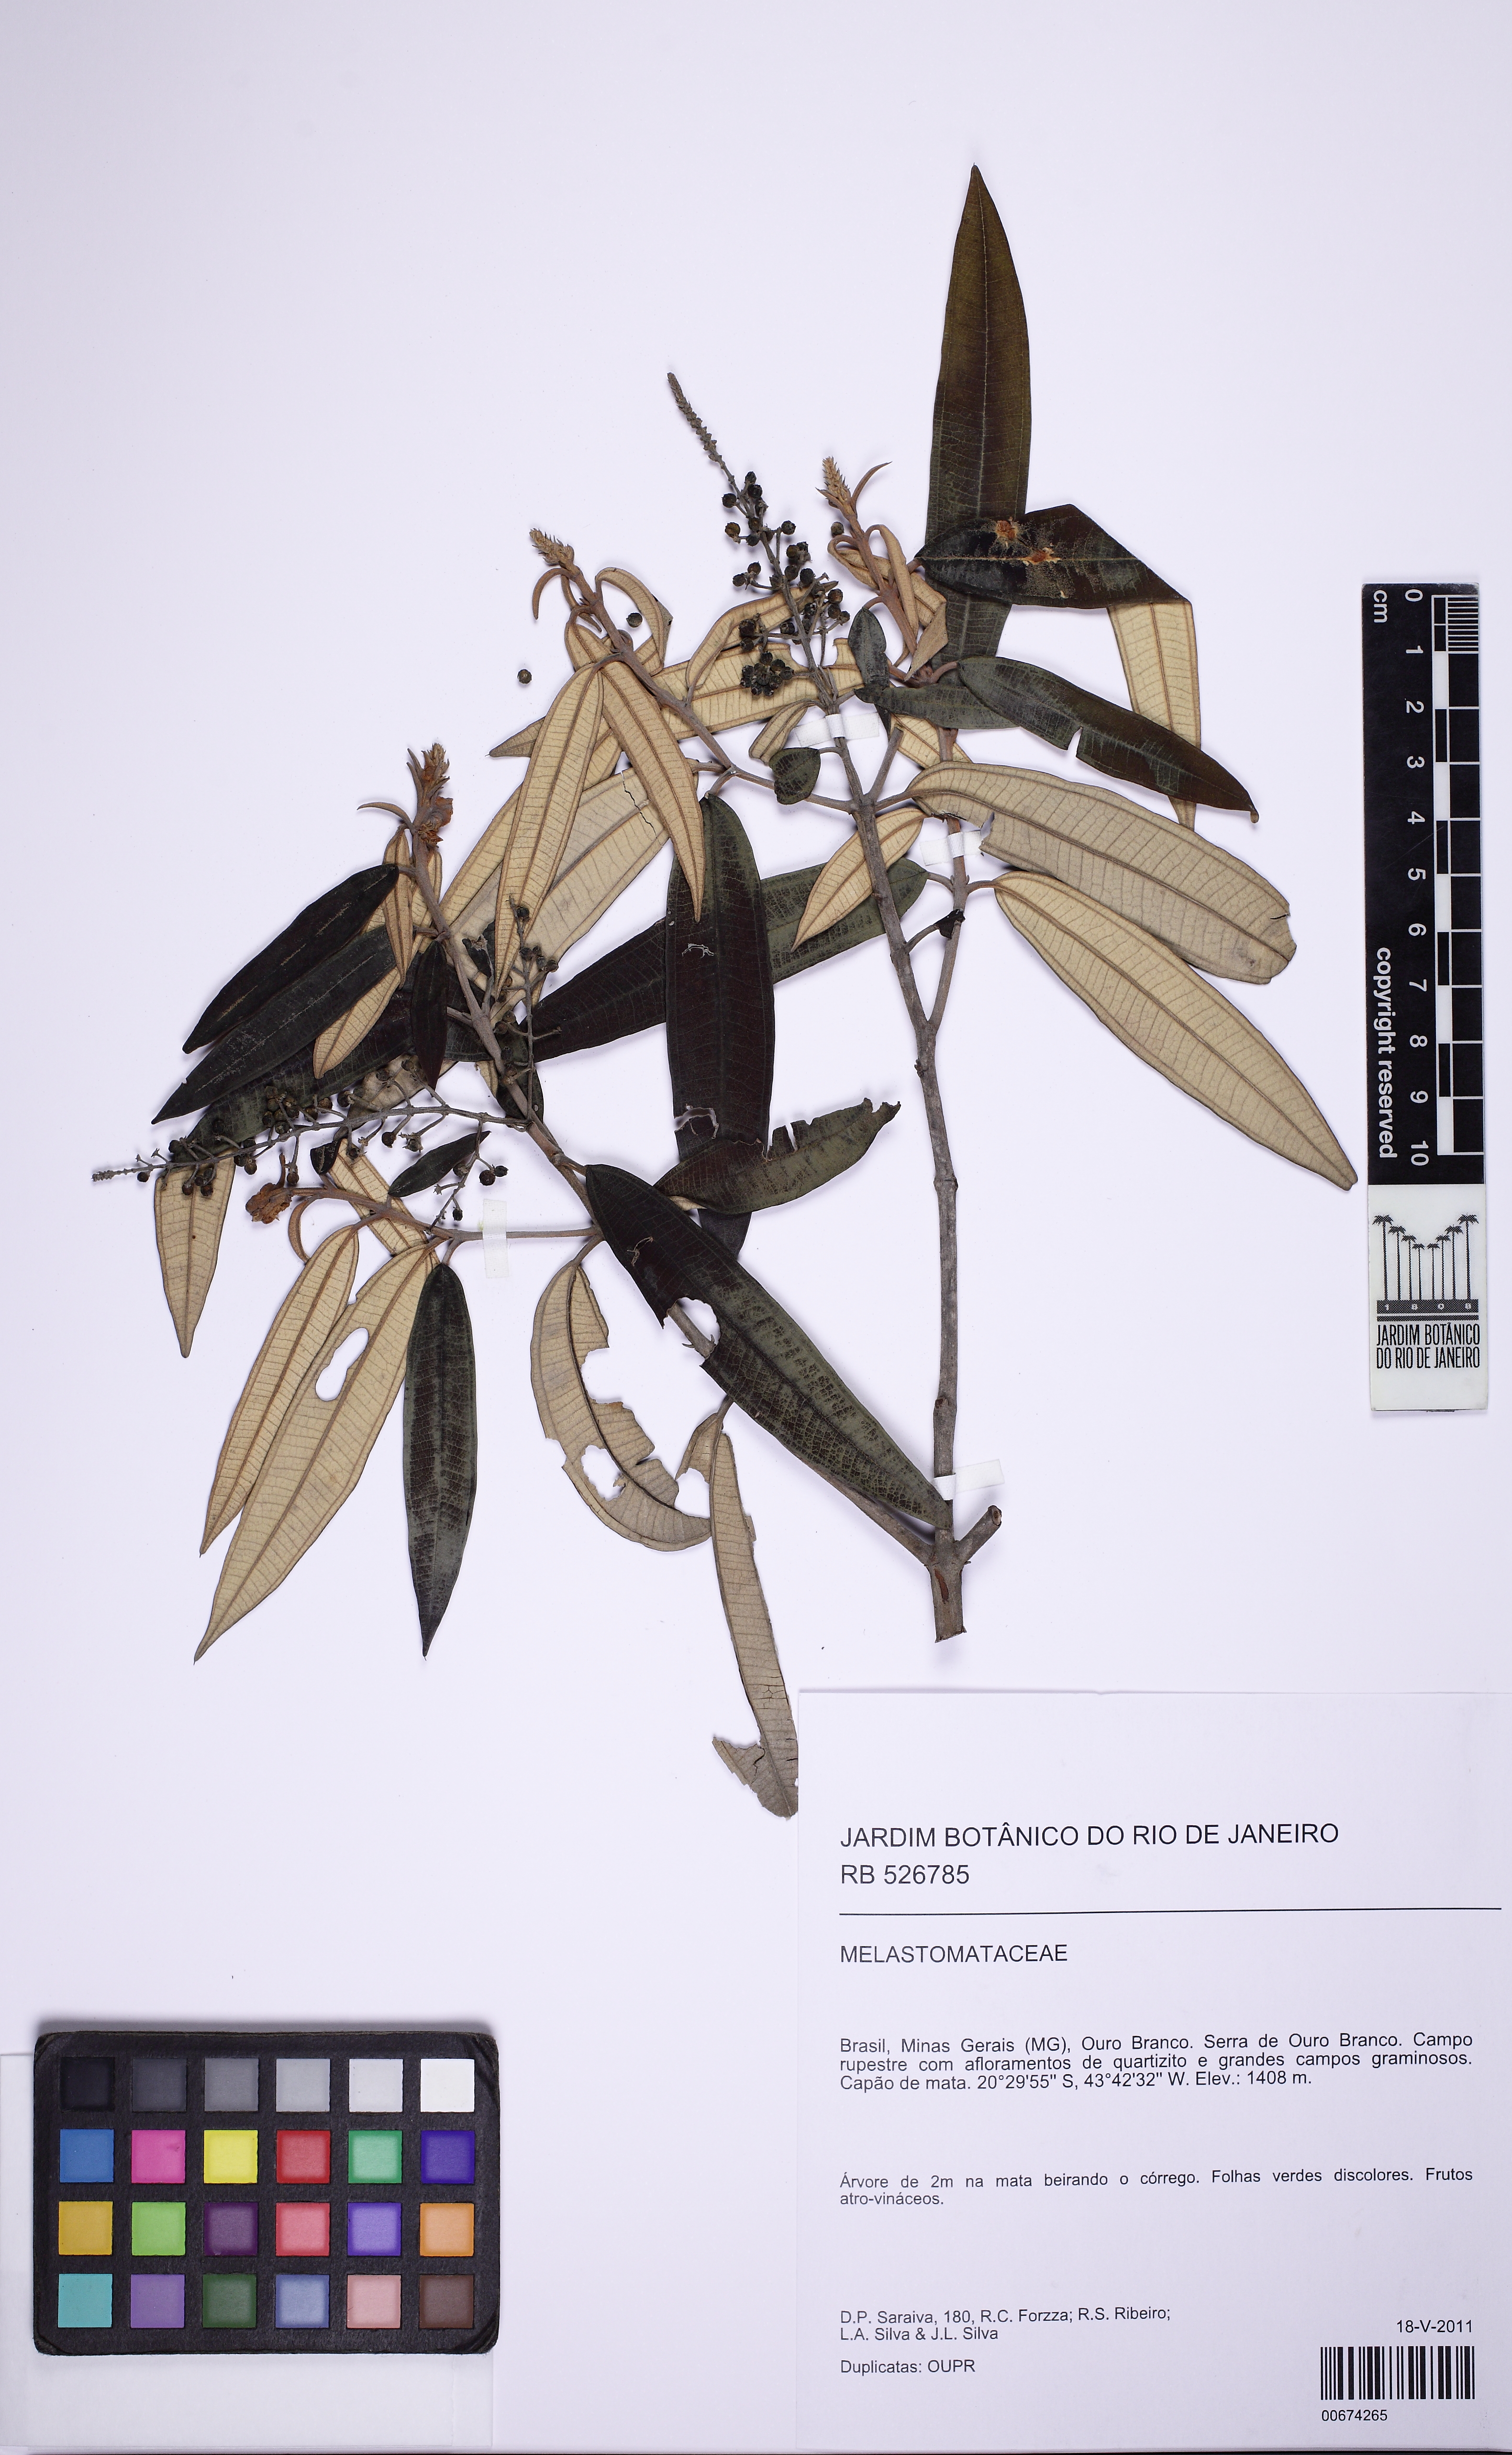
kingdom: Plantae
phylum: Tracheophyta
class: Magnoliopsida
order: Myrtales
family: Melastomataceae
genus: Miconia
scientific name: Miconia pepericarpa
